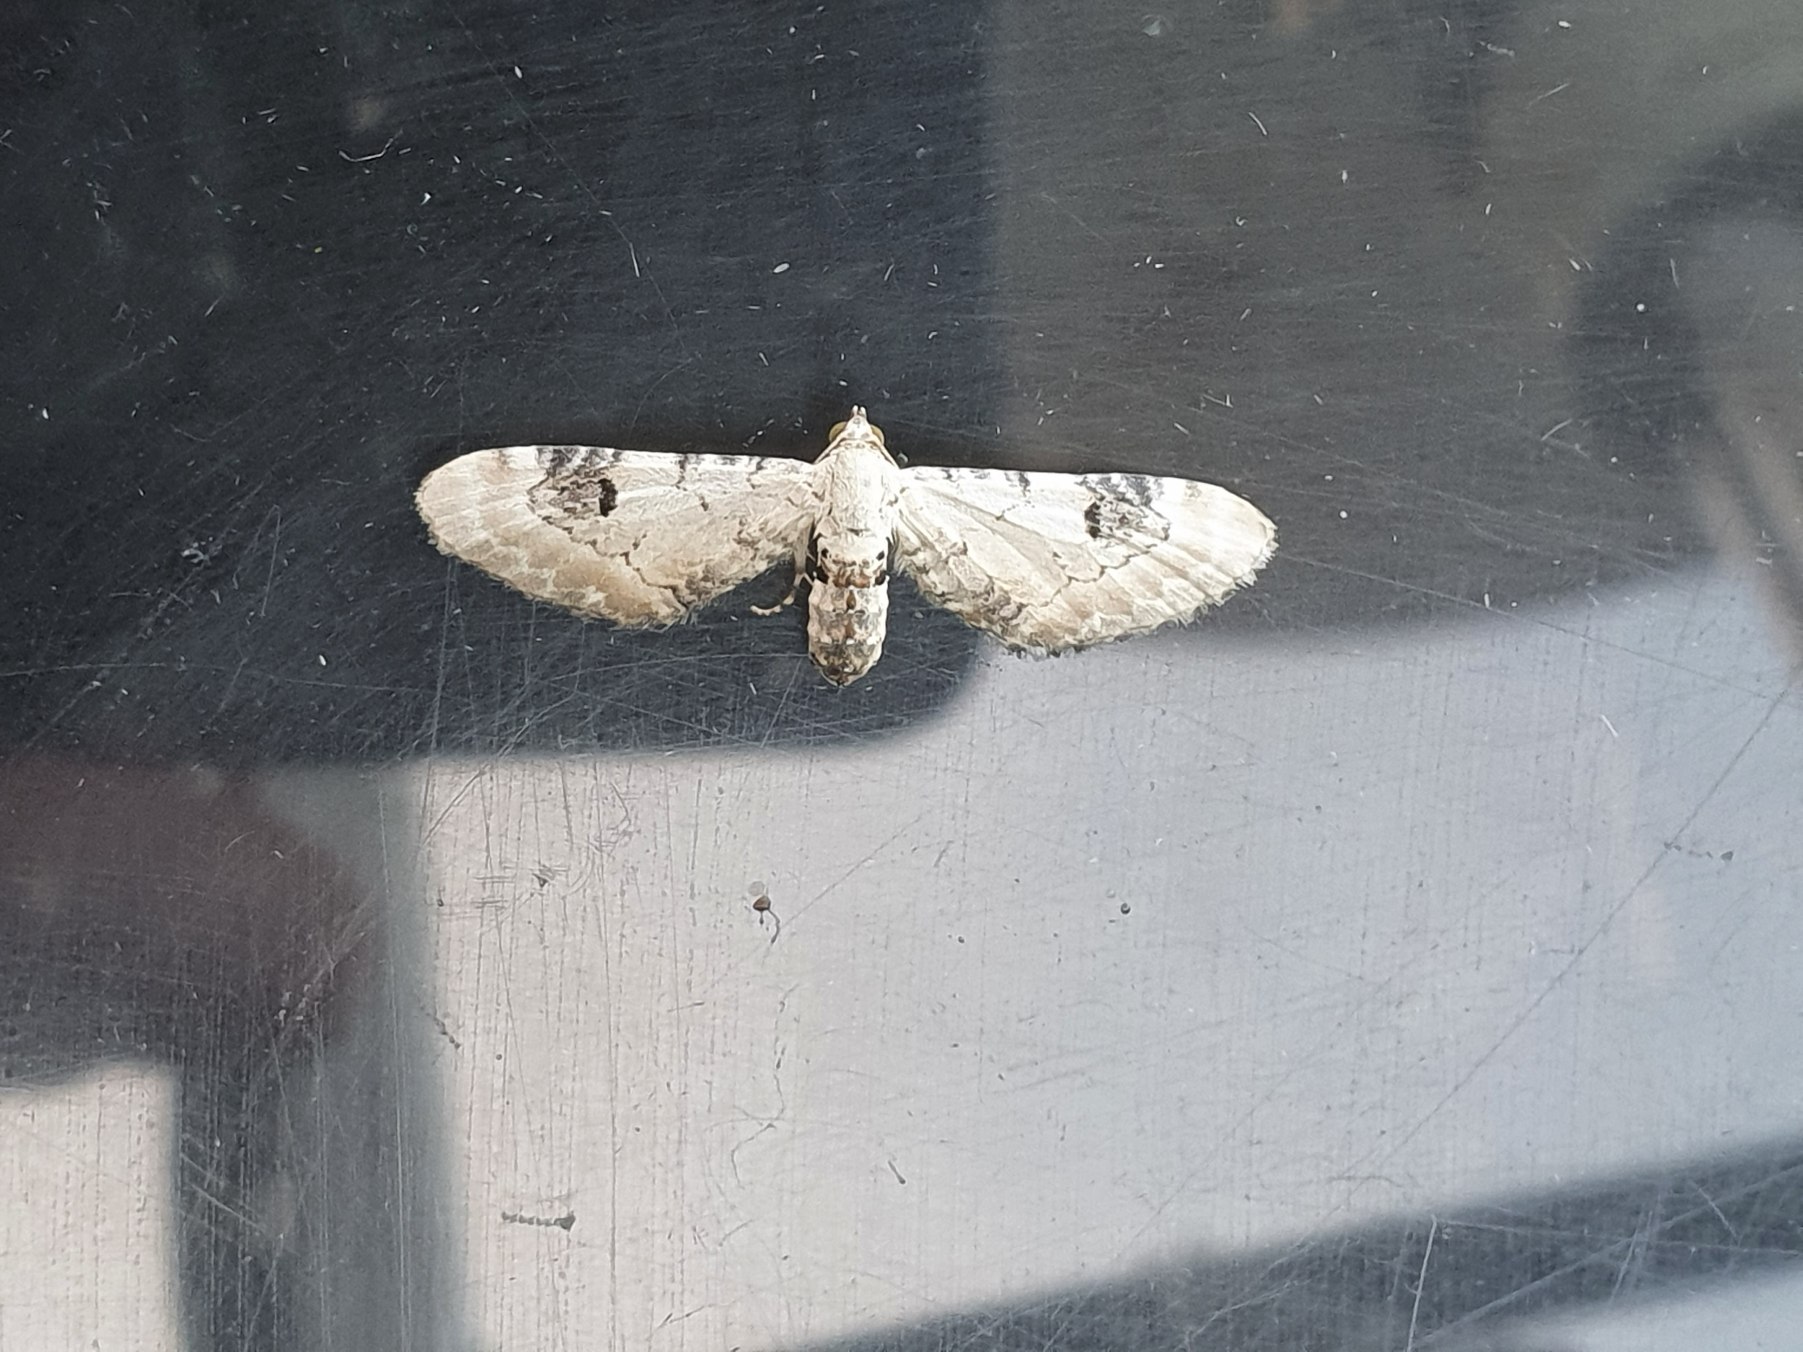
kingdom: Animalia
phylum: Arthropoda
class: Insecta
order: Lepidoptera
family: Geometridae
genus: Eupithecia
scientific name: Eupithecia centaureata
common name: Hvid dværgmåler
